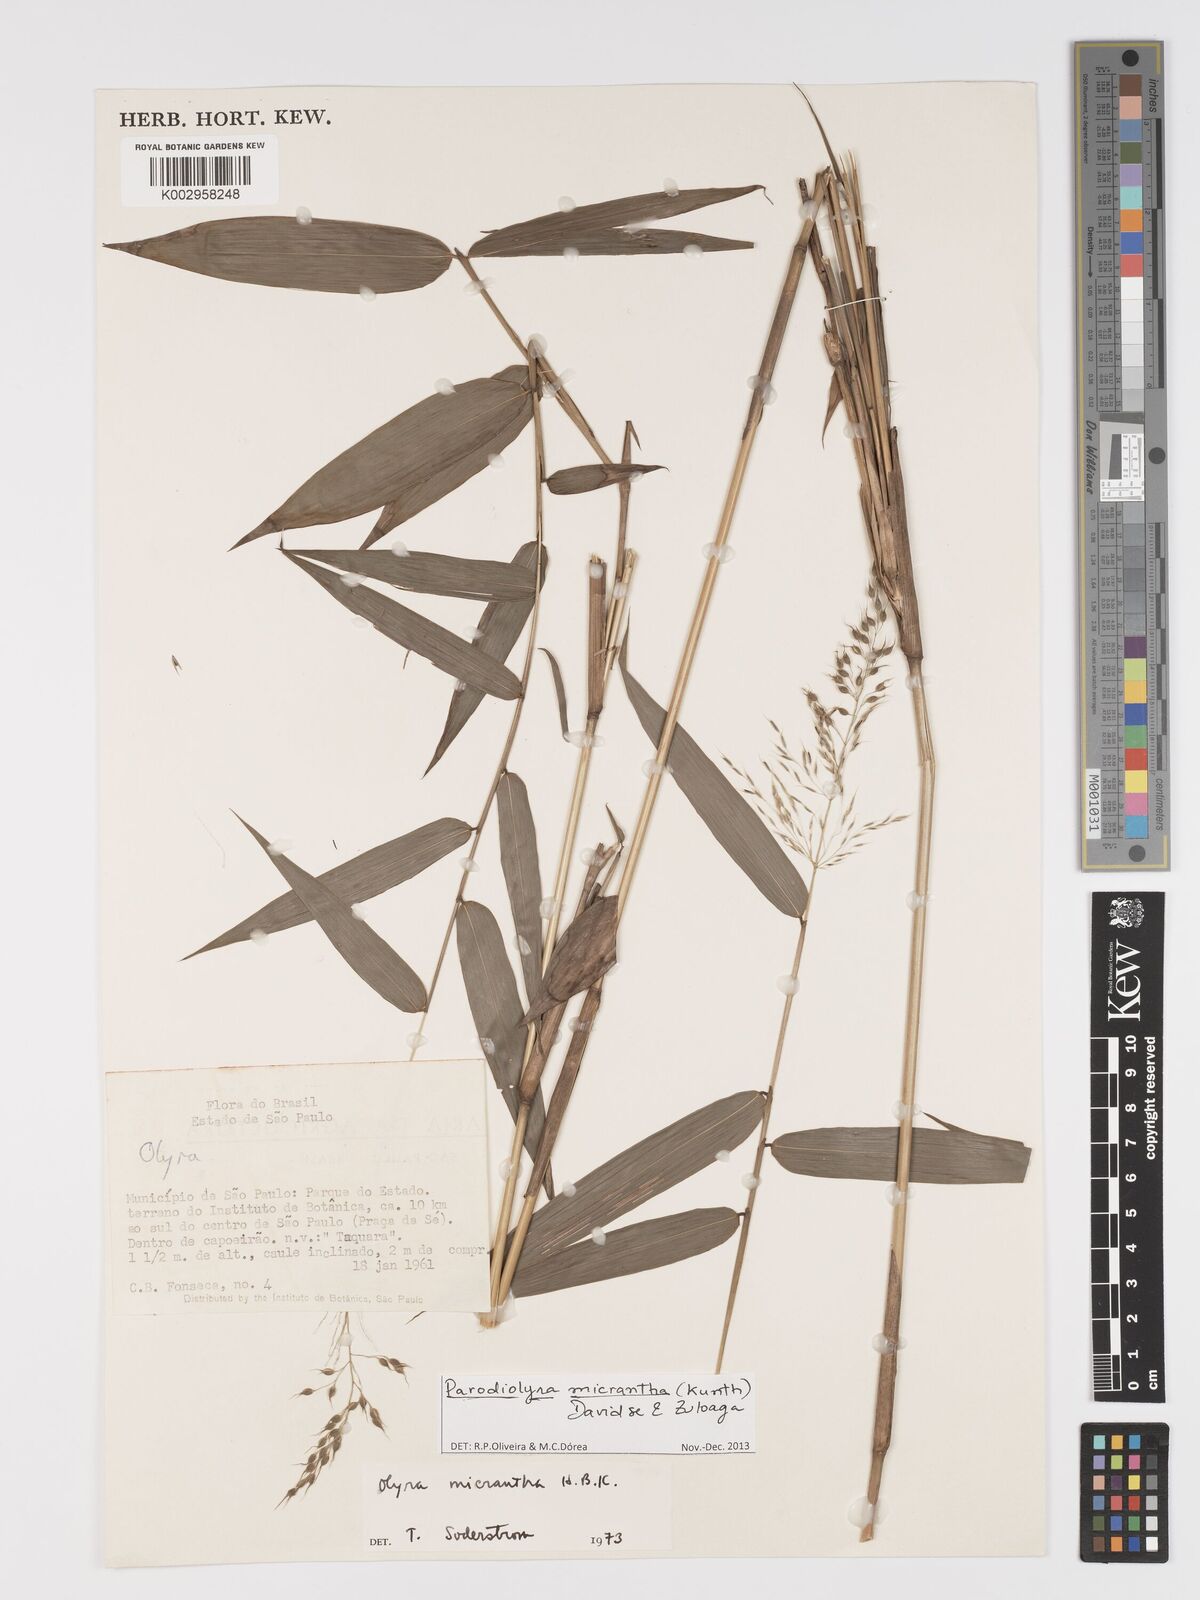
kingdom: Plantae
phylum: Tracheophyta
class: Liliopsida
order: Poales
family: Poaceae
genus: Taquara
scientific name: Taquara micrantha
